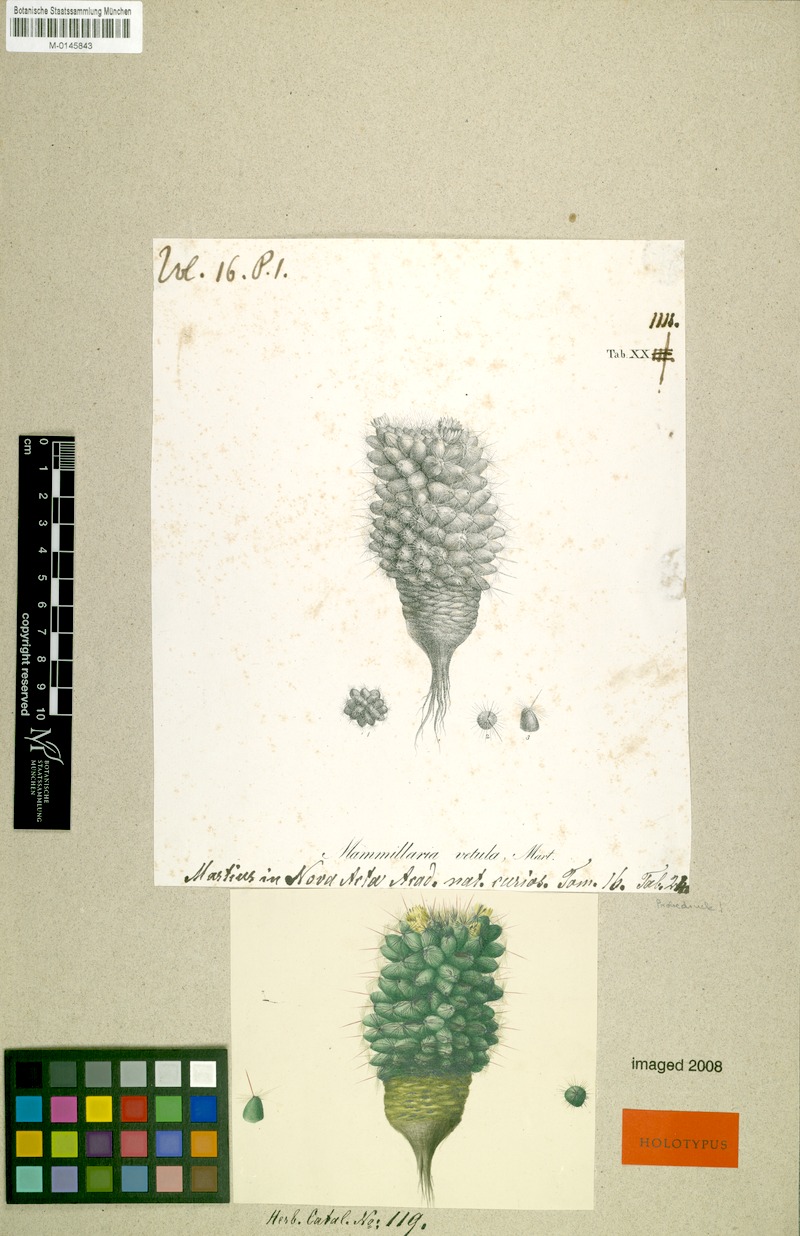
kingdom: Plantae
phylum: Tracheophyta
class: Magnoliopsida
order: Caryophyllales
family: Cactaceae
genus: Mammillaria
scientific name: Mammillaria vetula
